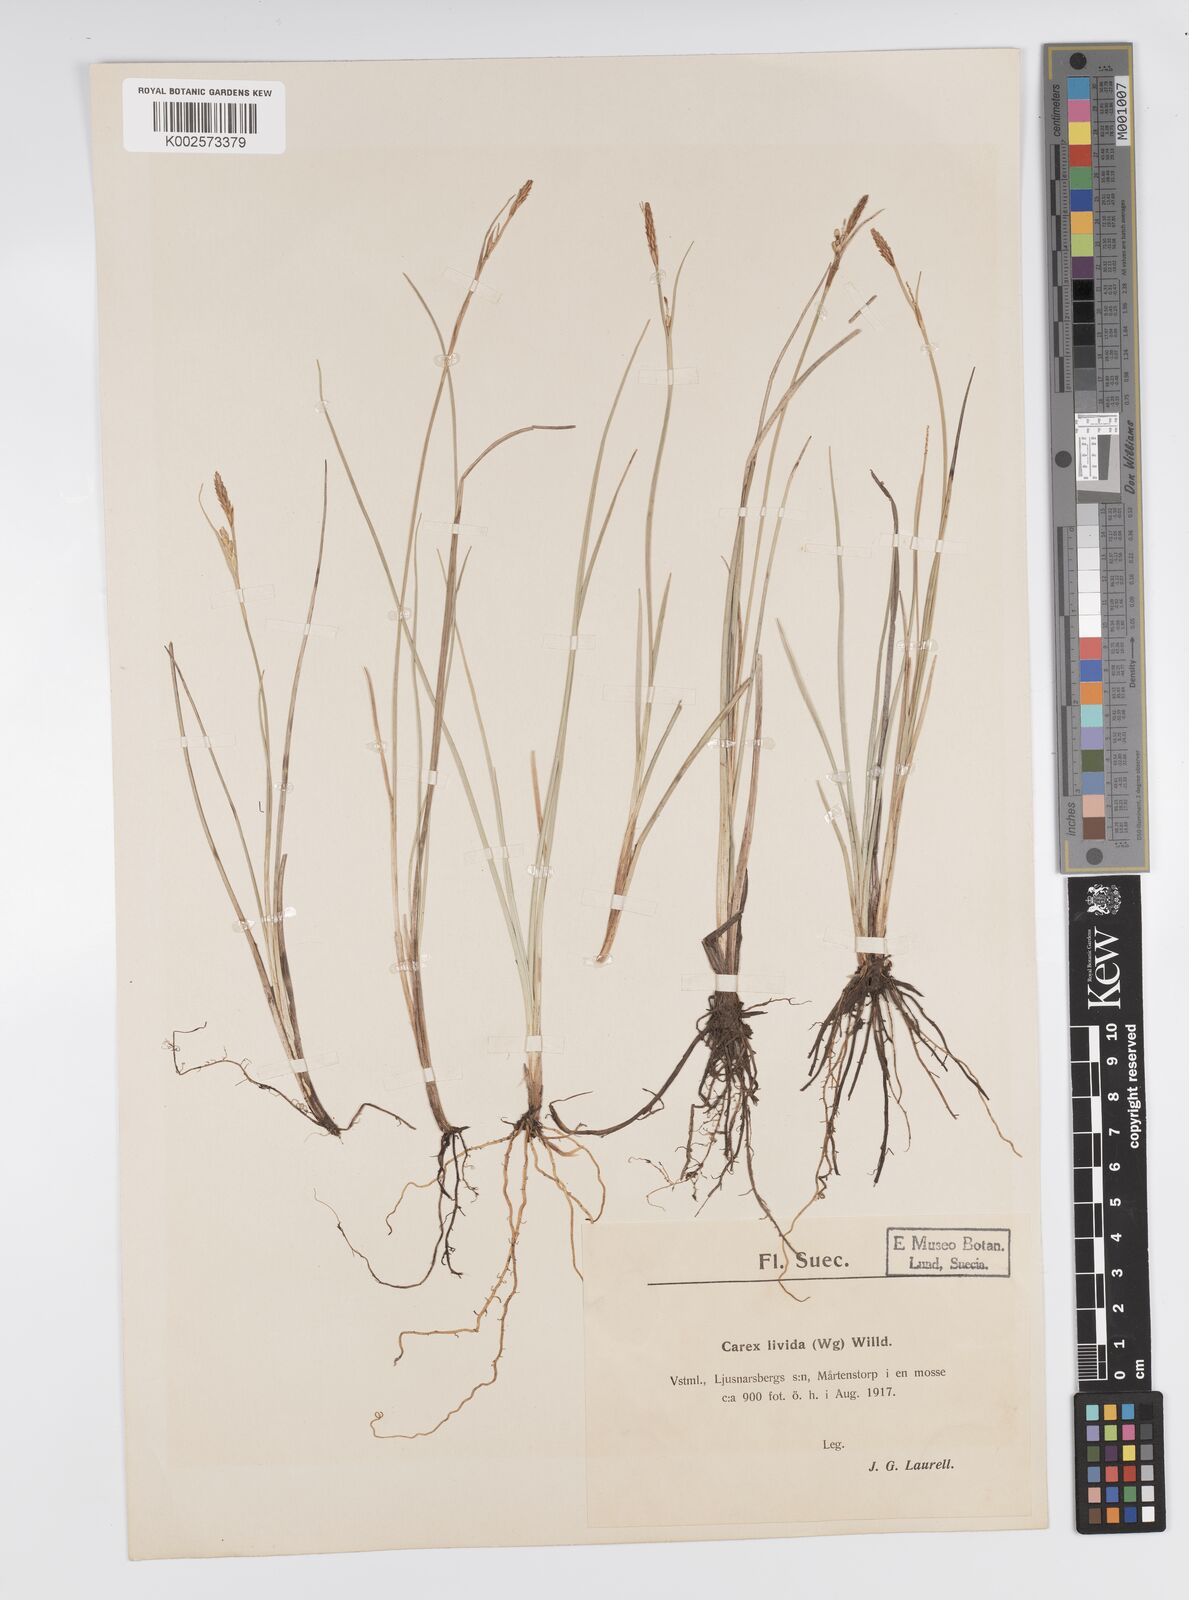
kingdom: Plantae
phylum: Tracheophyta
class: Liliopsida
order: Poales
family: Cyperaceae
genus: Carex
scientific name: Carex livida
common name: Livid sedge
